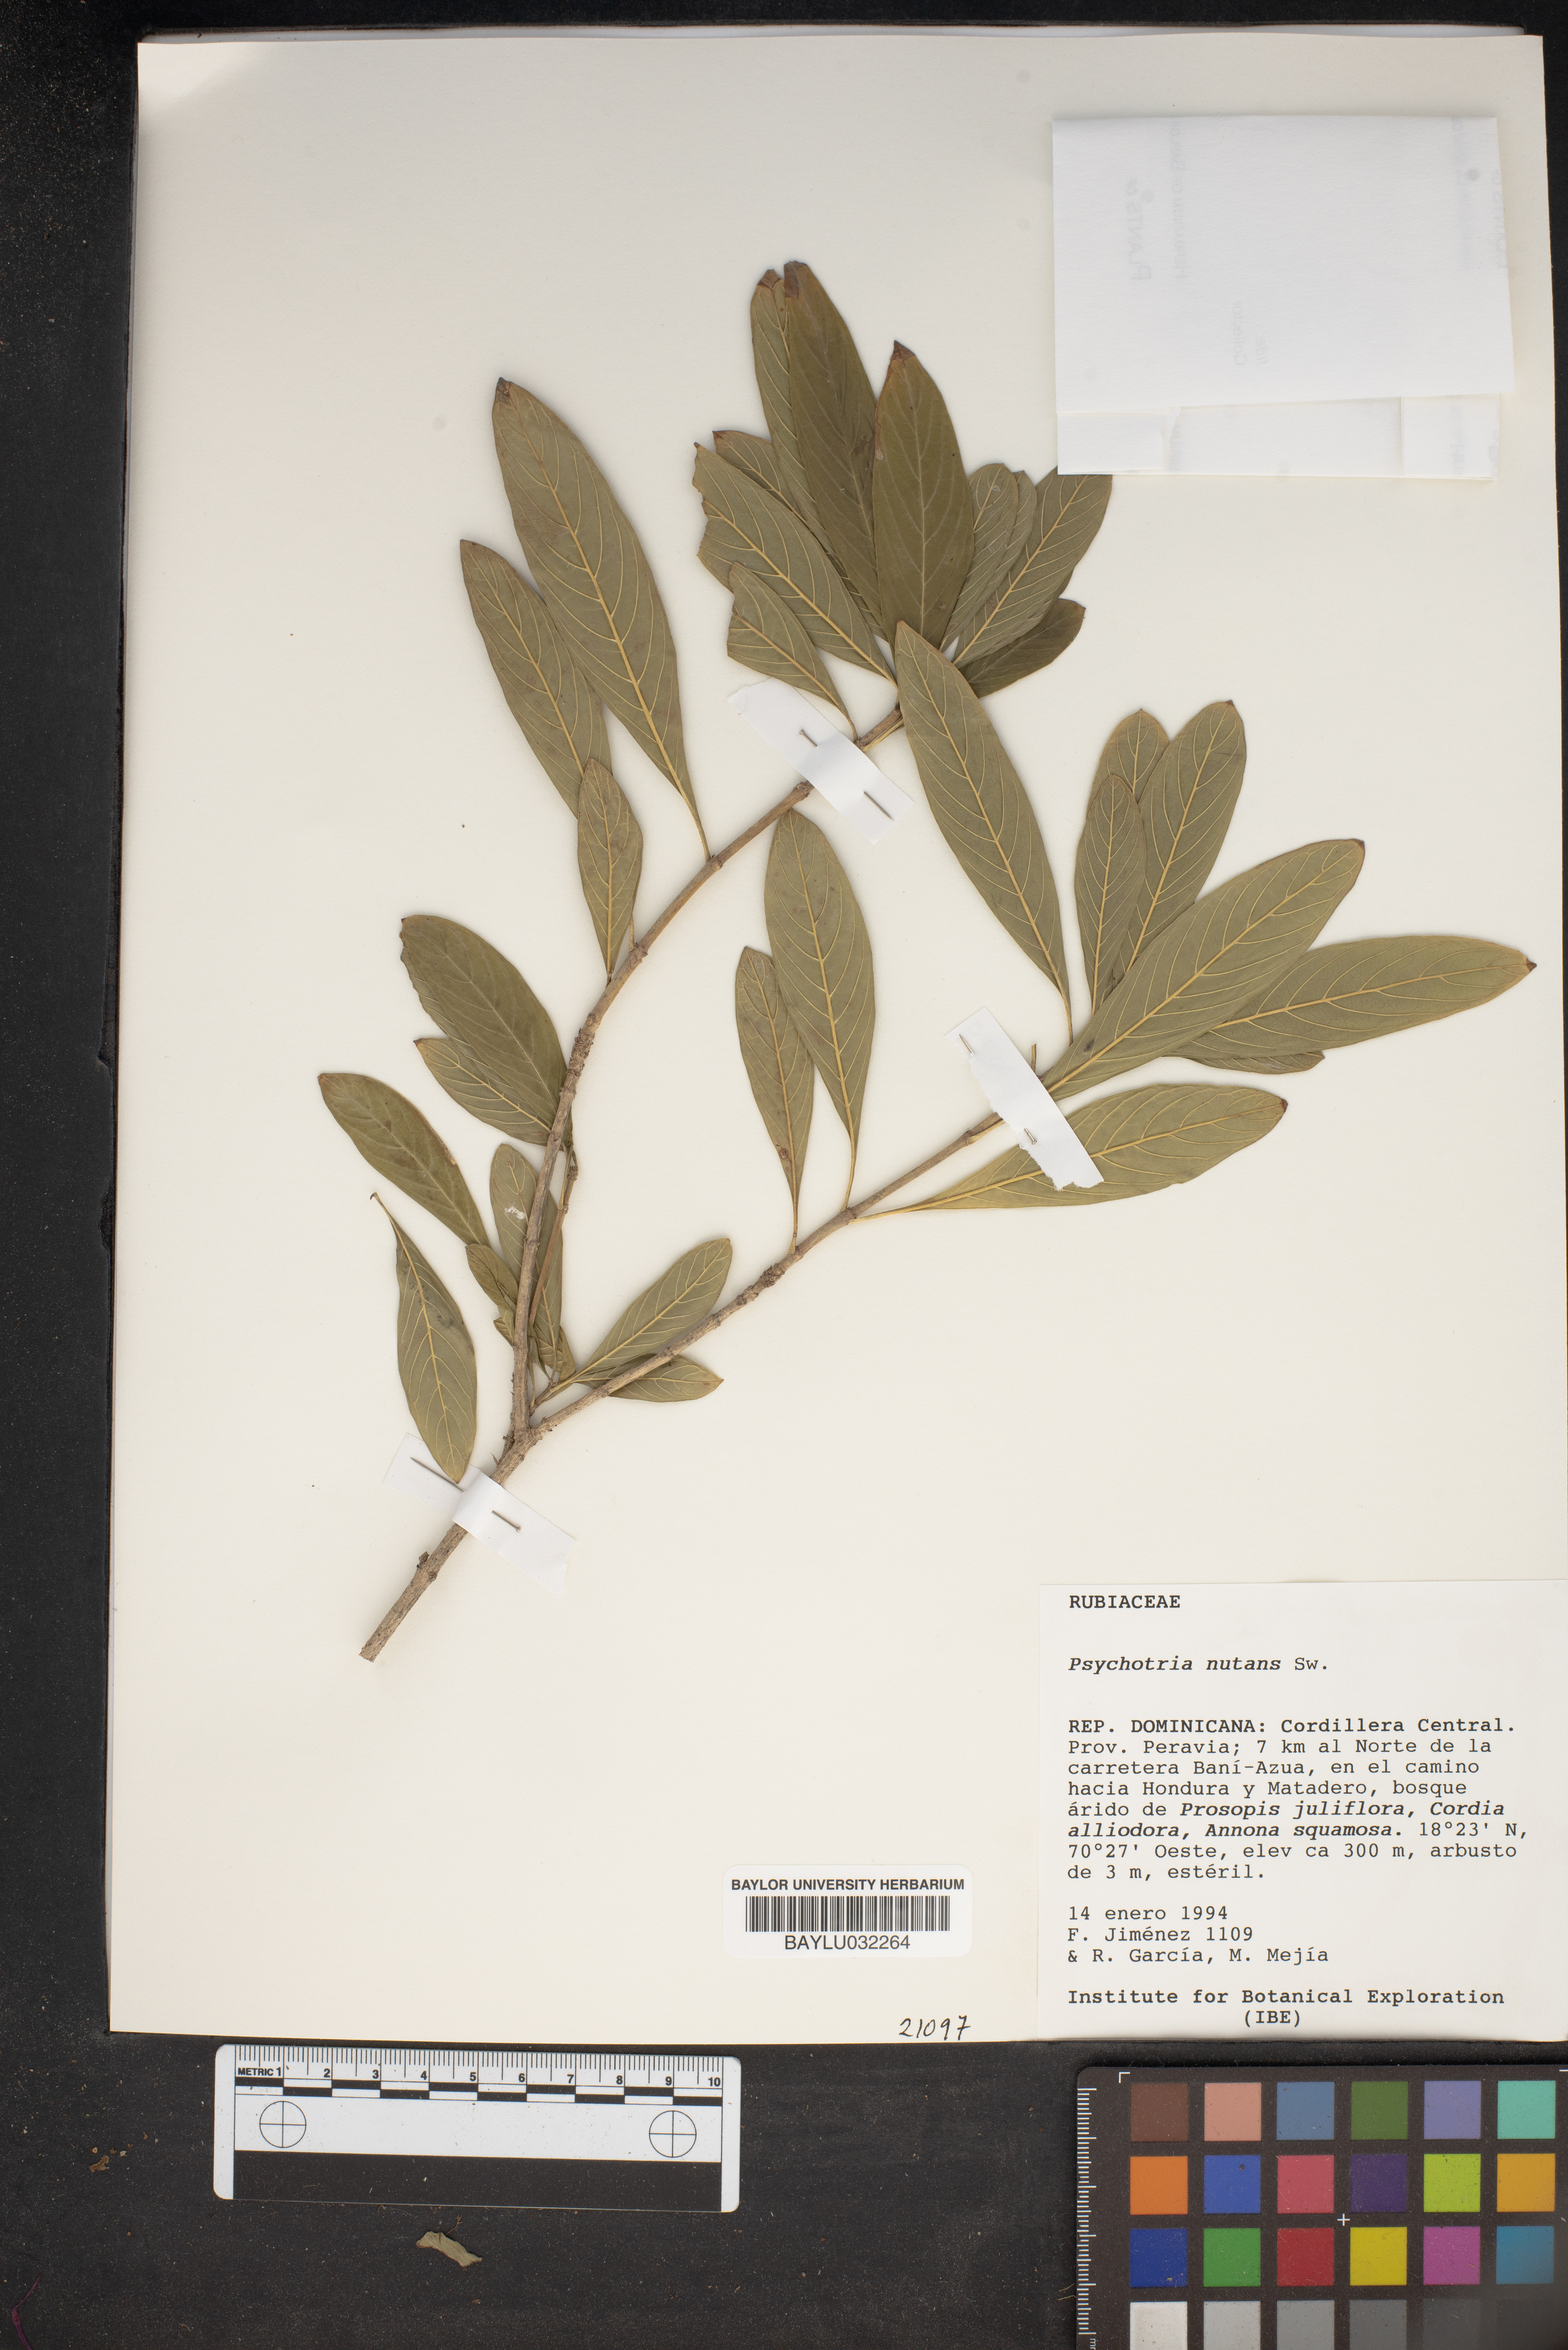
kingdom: Plantae
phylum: Tracheophyta
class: Magnoliopsida
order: Gentianales
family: Rubiaceae
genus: Eumachia
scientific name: Eumachia nutans
